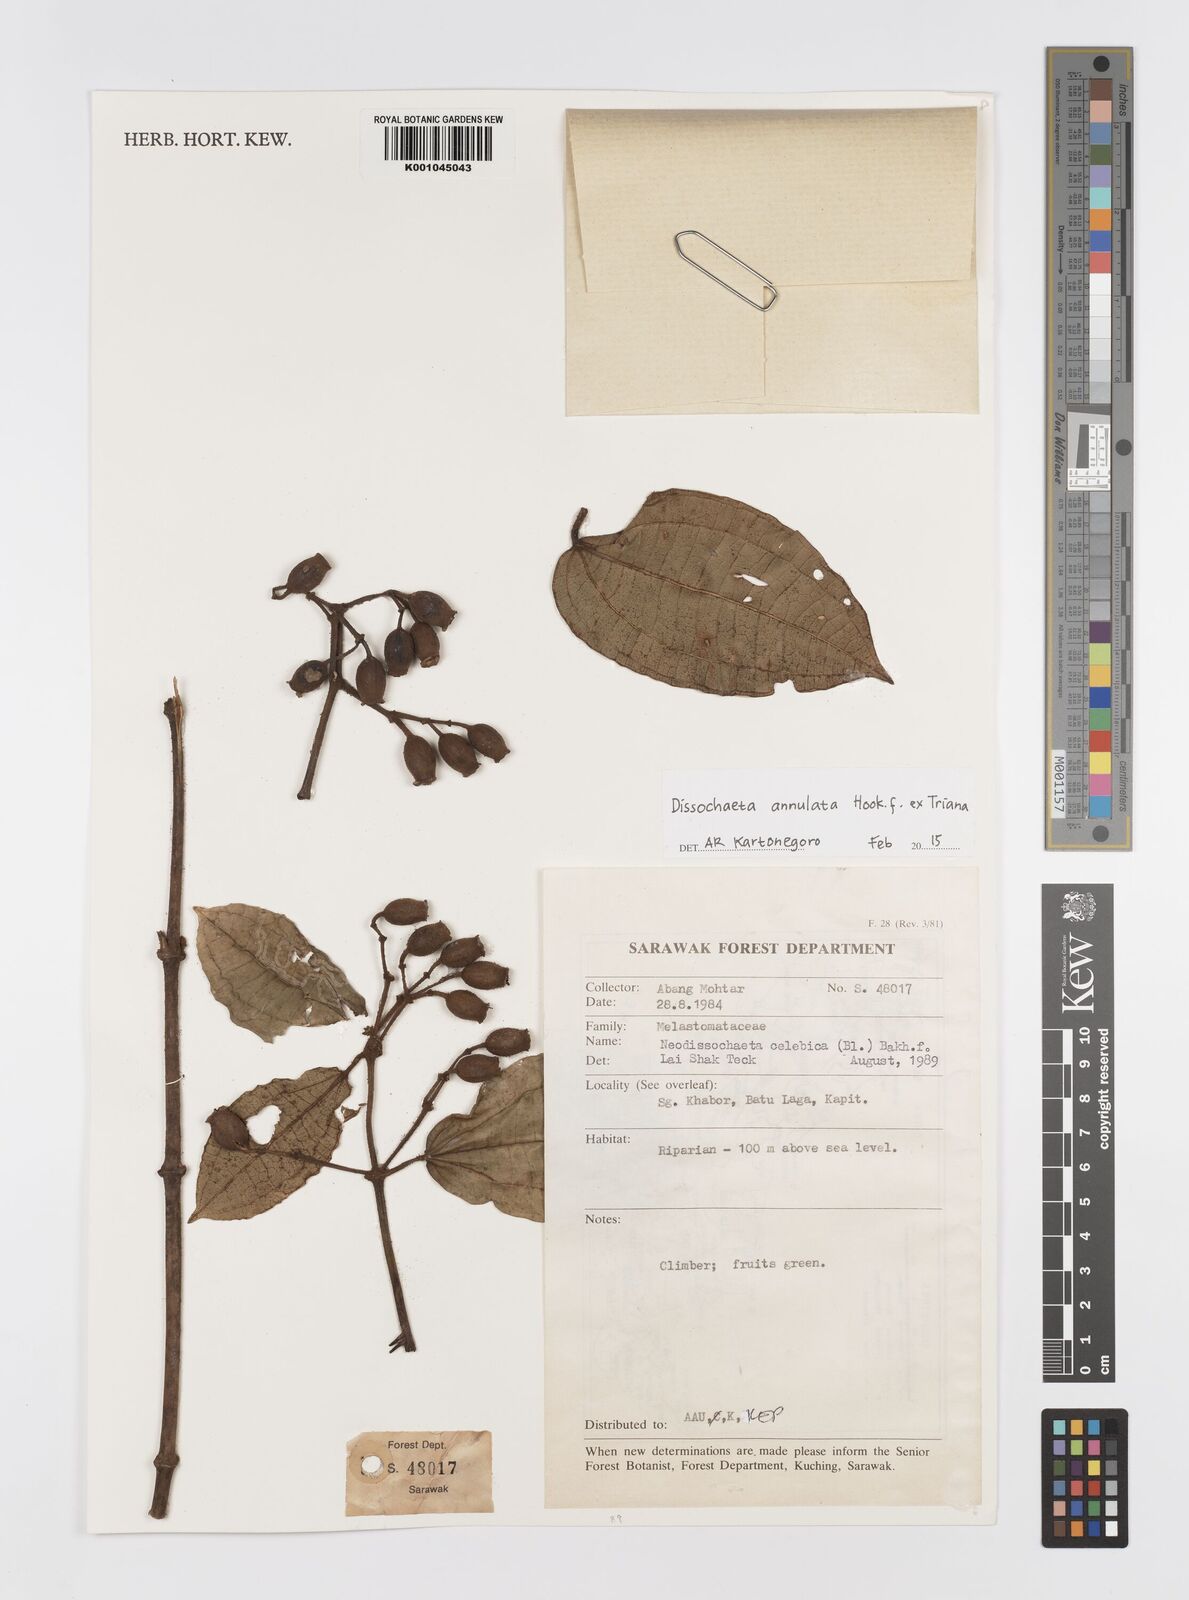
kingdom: Plantae
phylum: Tracheophyta
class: Magnoliopsida
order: Myrtales
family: Melastomataceae
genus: Dissochaeta
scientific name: Dissochaeta annulata
